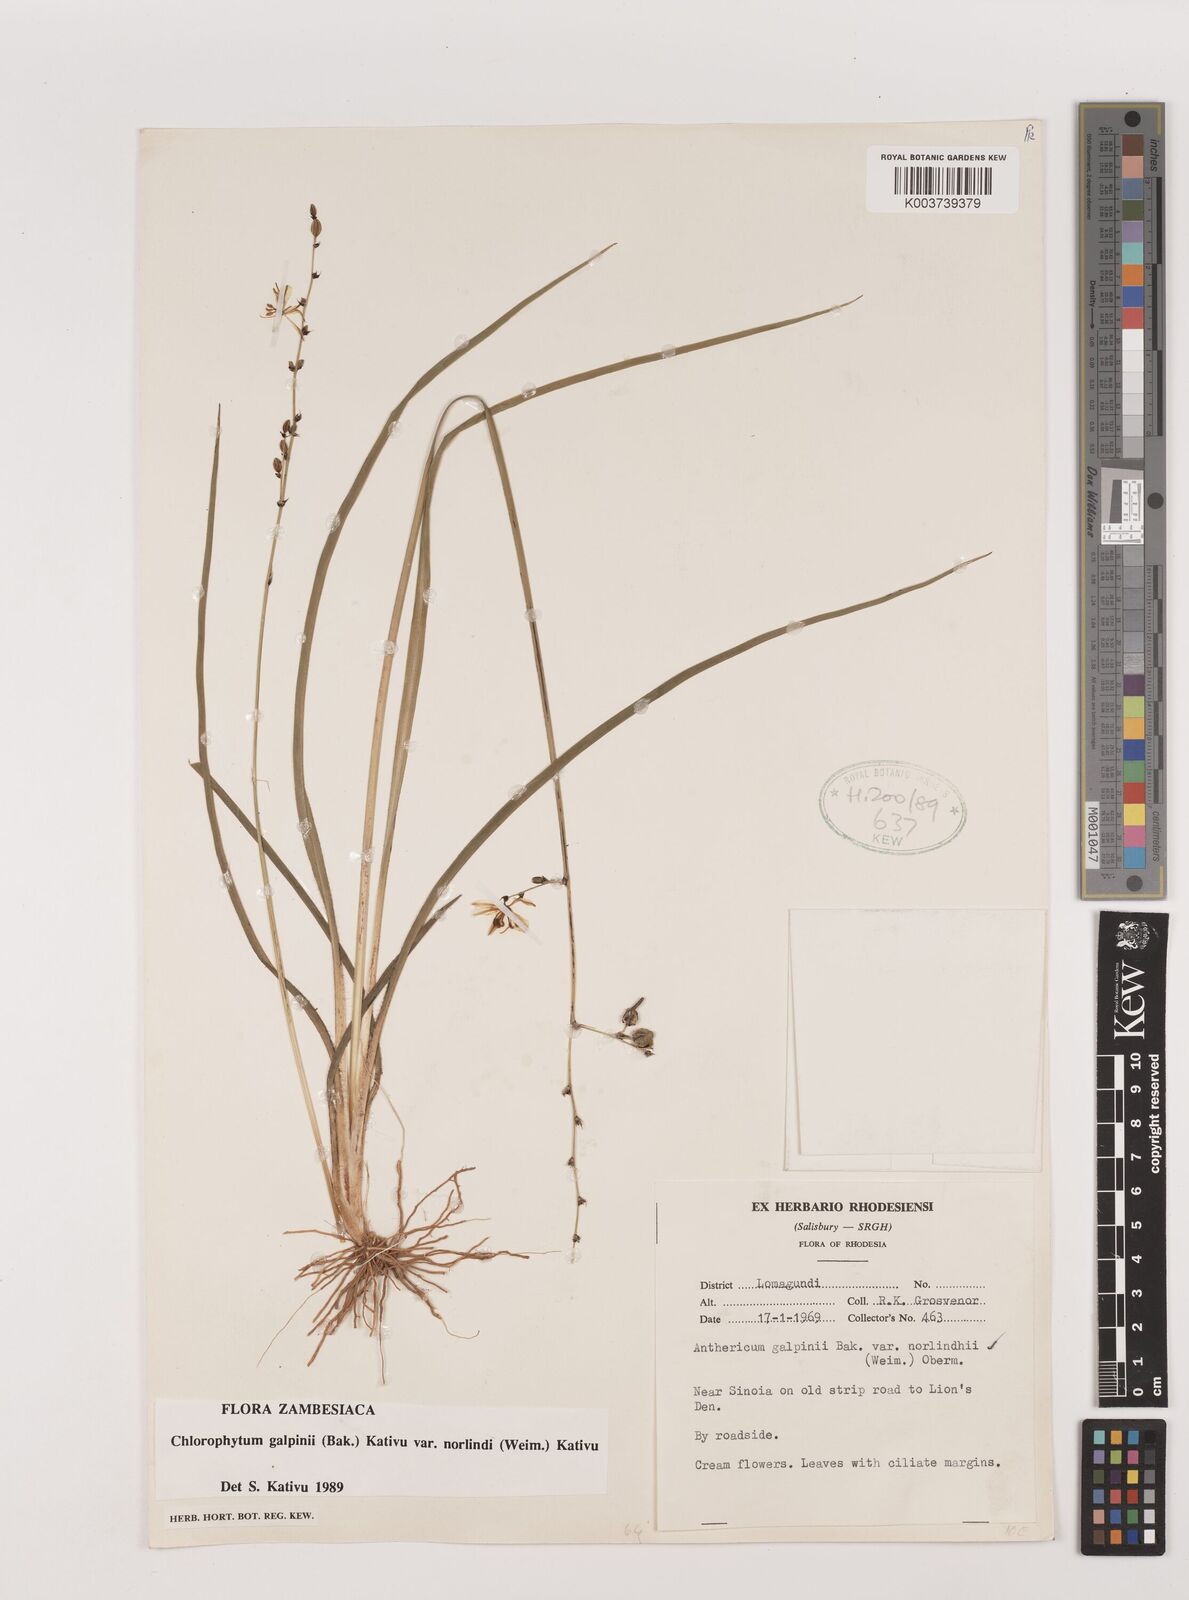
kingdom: Plantae
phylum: Tracheophyta
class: Liliopsida
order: Asparagales
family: Asparagaceae
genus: Chlorophytum
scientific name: Chlorophytum galpinii
